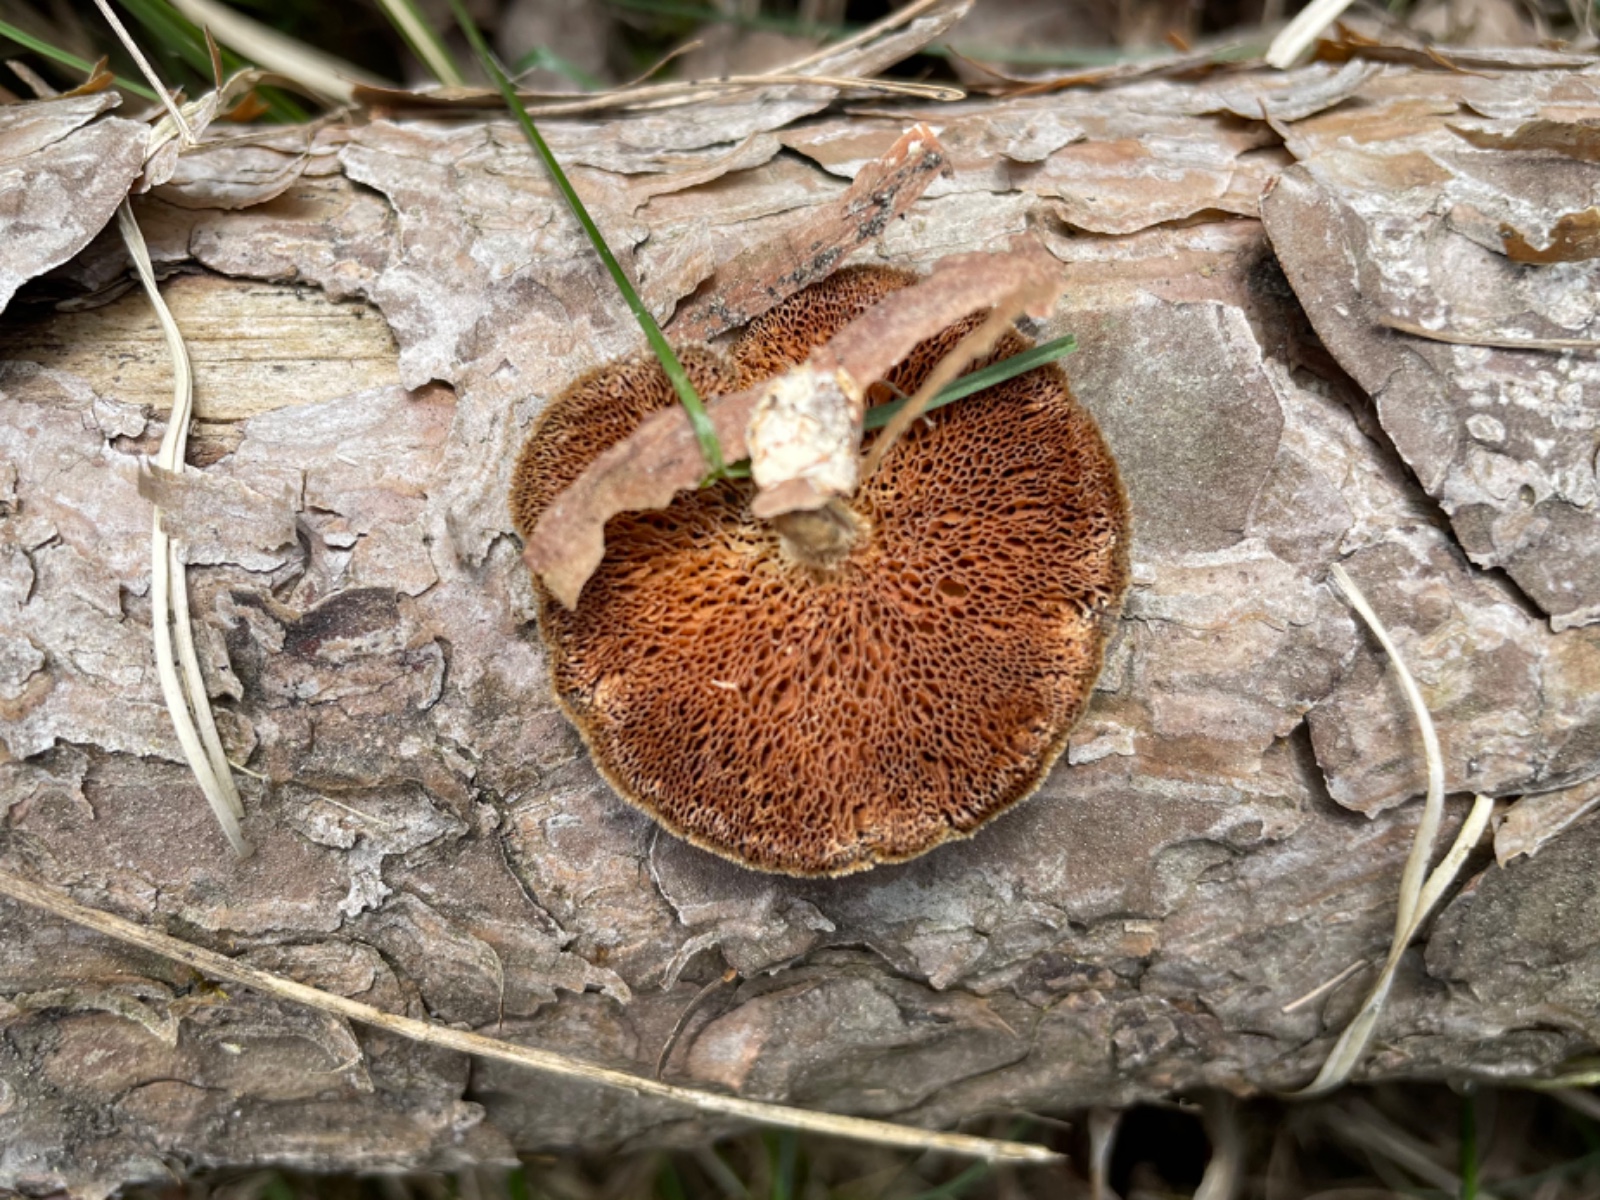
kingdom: Fungi
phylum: Basidiomycota
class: Agaricomycetes
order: Polyporales
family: Polyporaceae
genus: Lentinus
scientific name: Lentinus brumalis
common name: vinter-stilkporesvamp
